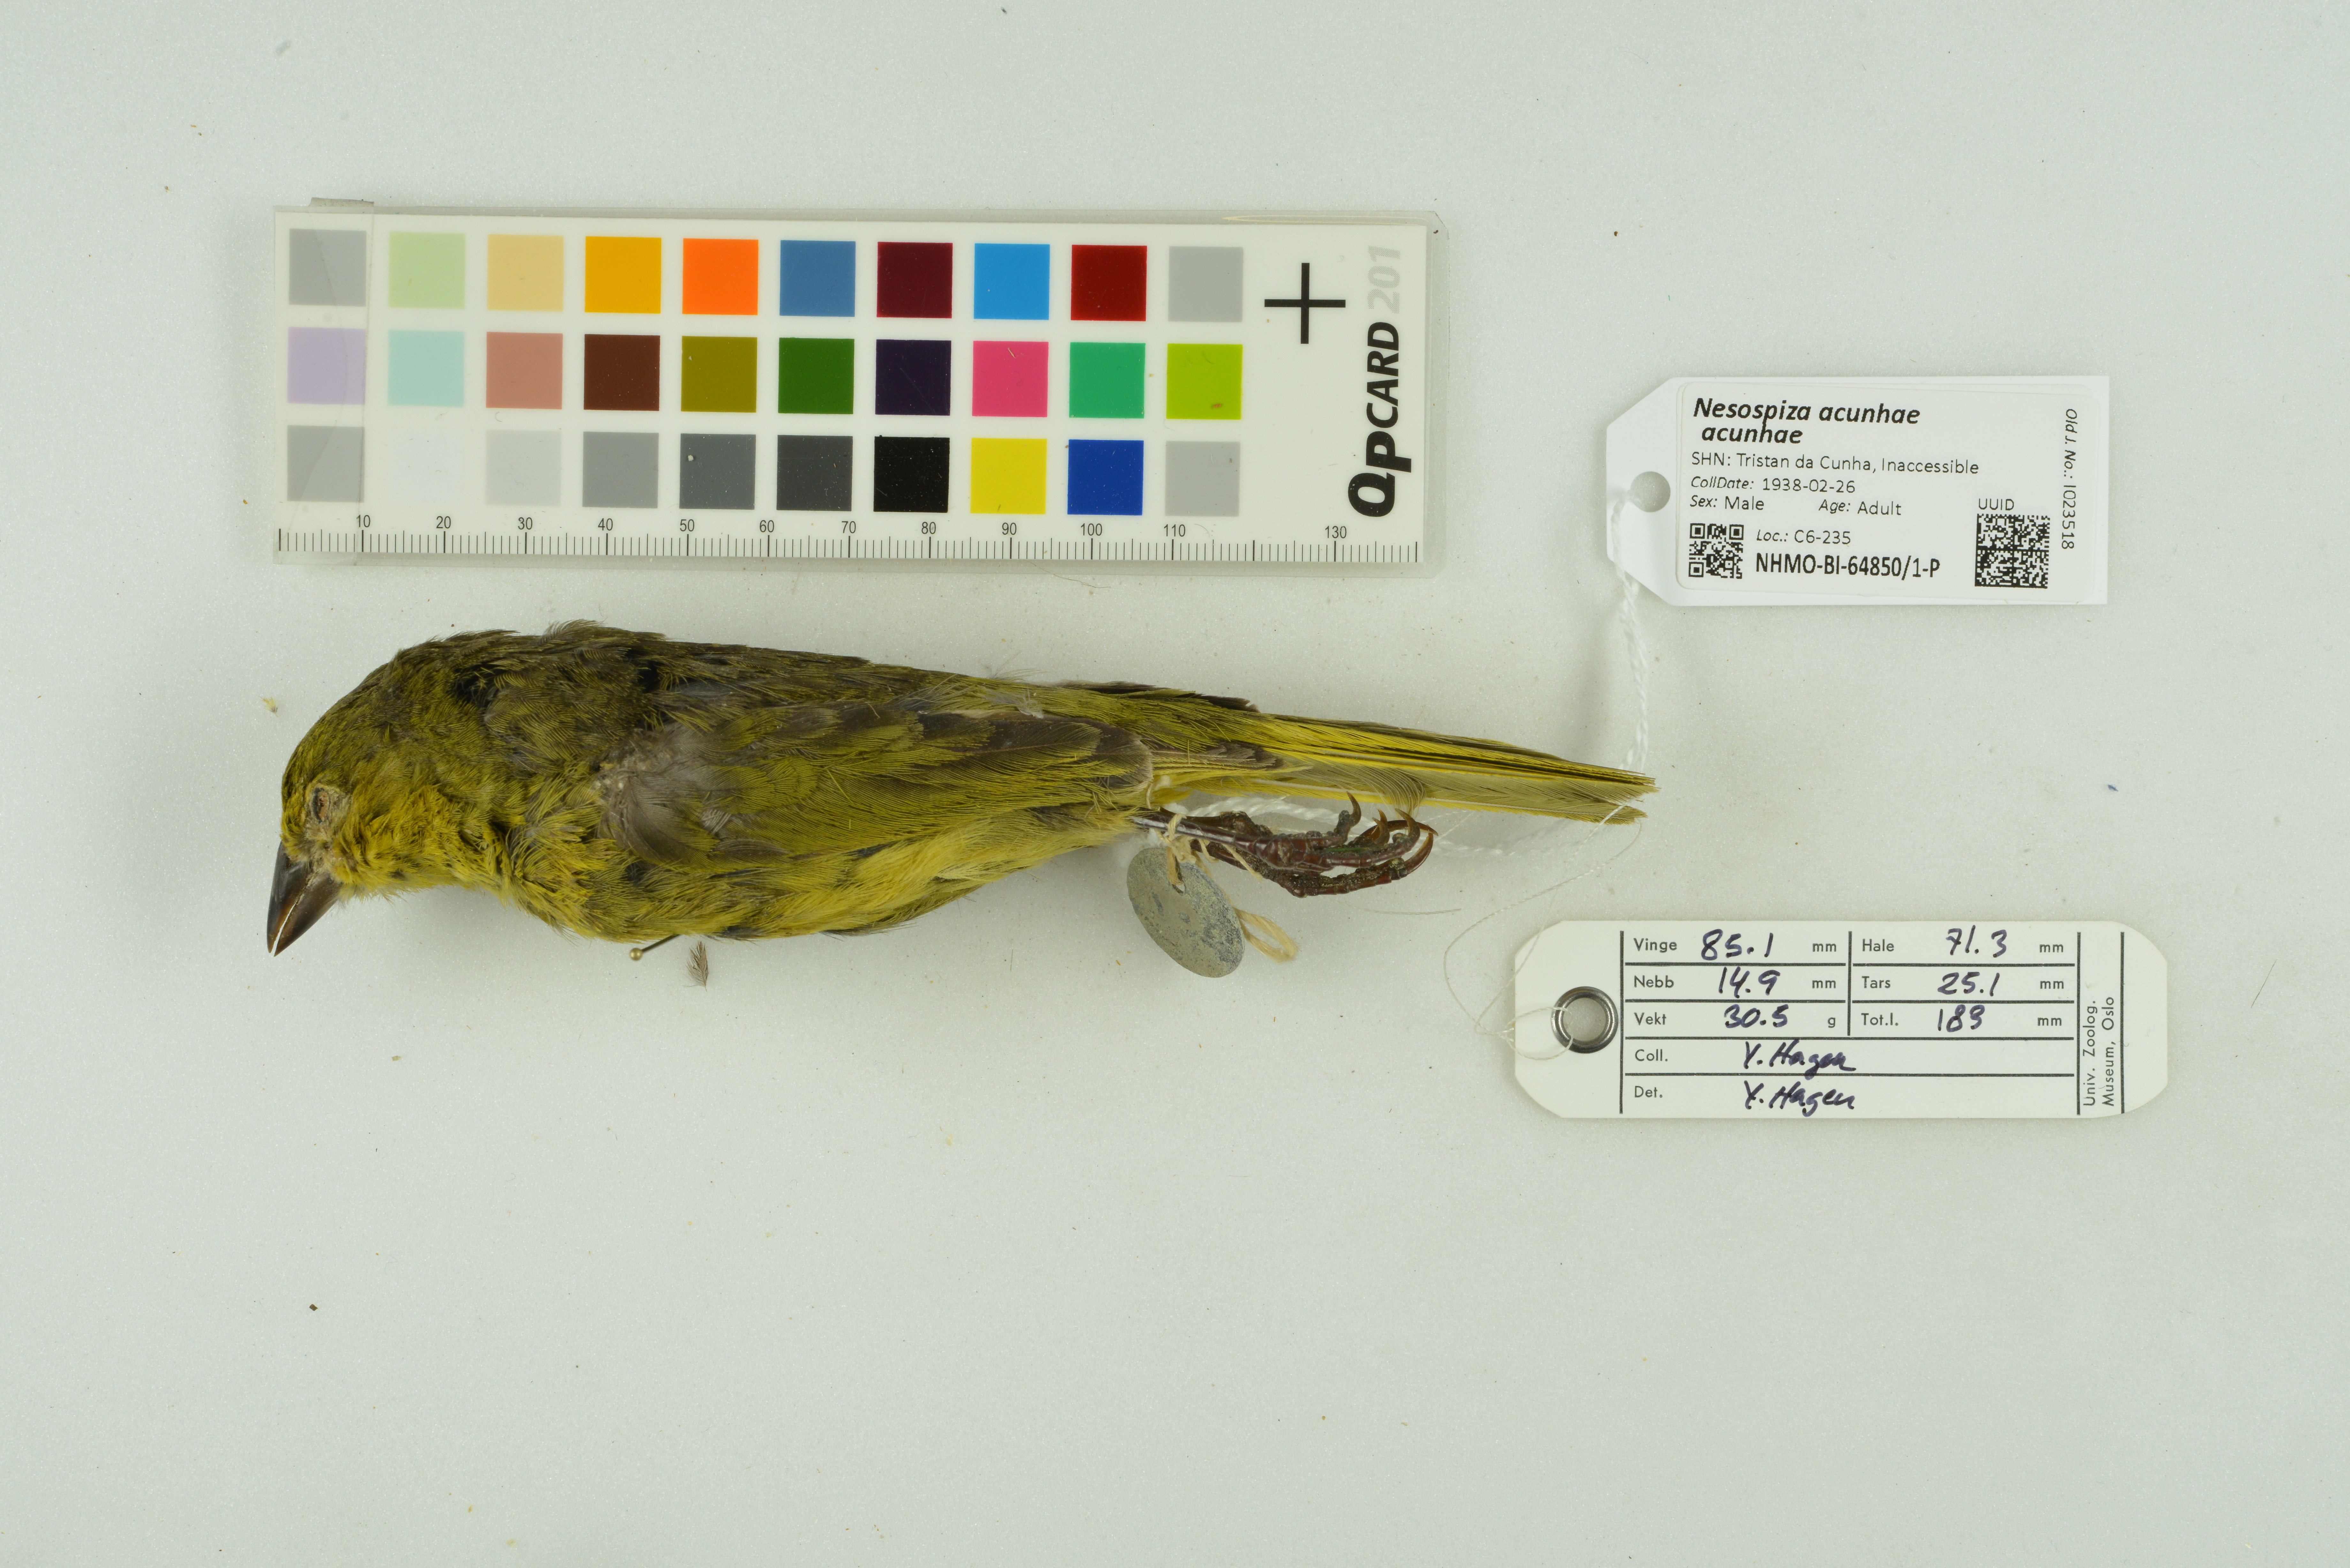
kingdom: Animalia
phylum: Chordata
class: Aves
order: Passeriformes
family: Thraupidae
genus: Nesospiza
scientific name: Nesospiza acunhae
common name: Inaccessible island finch
